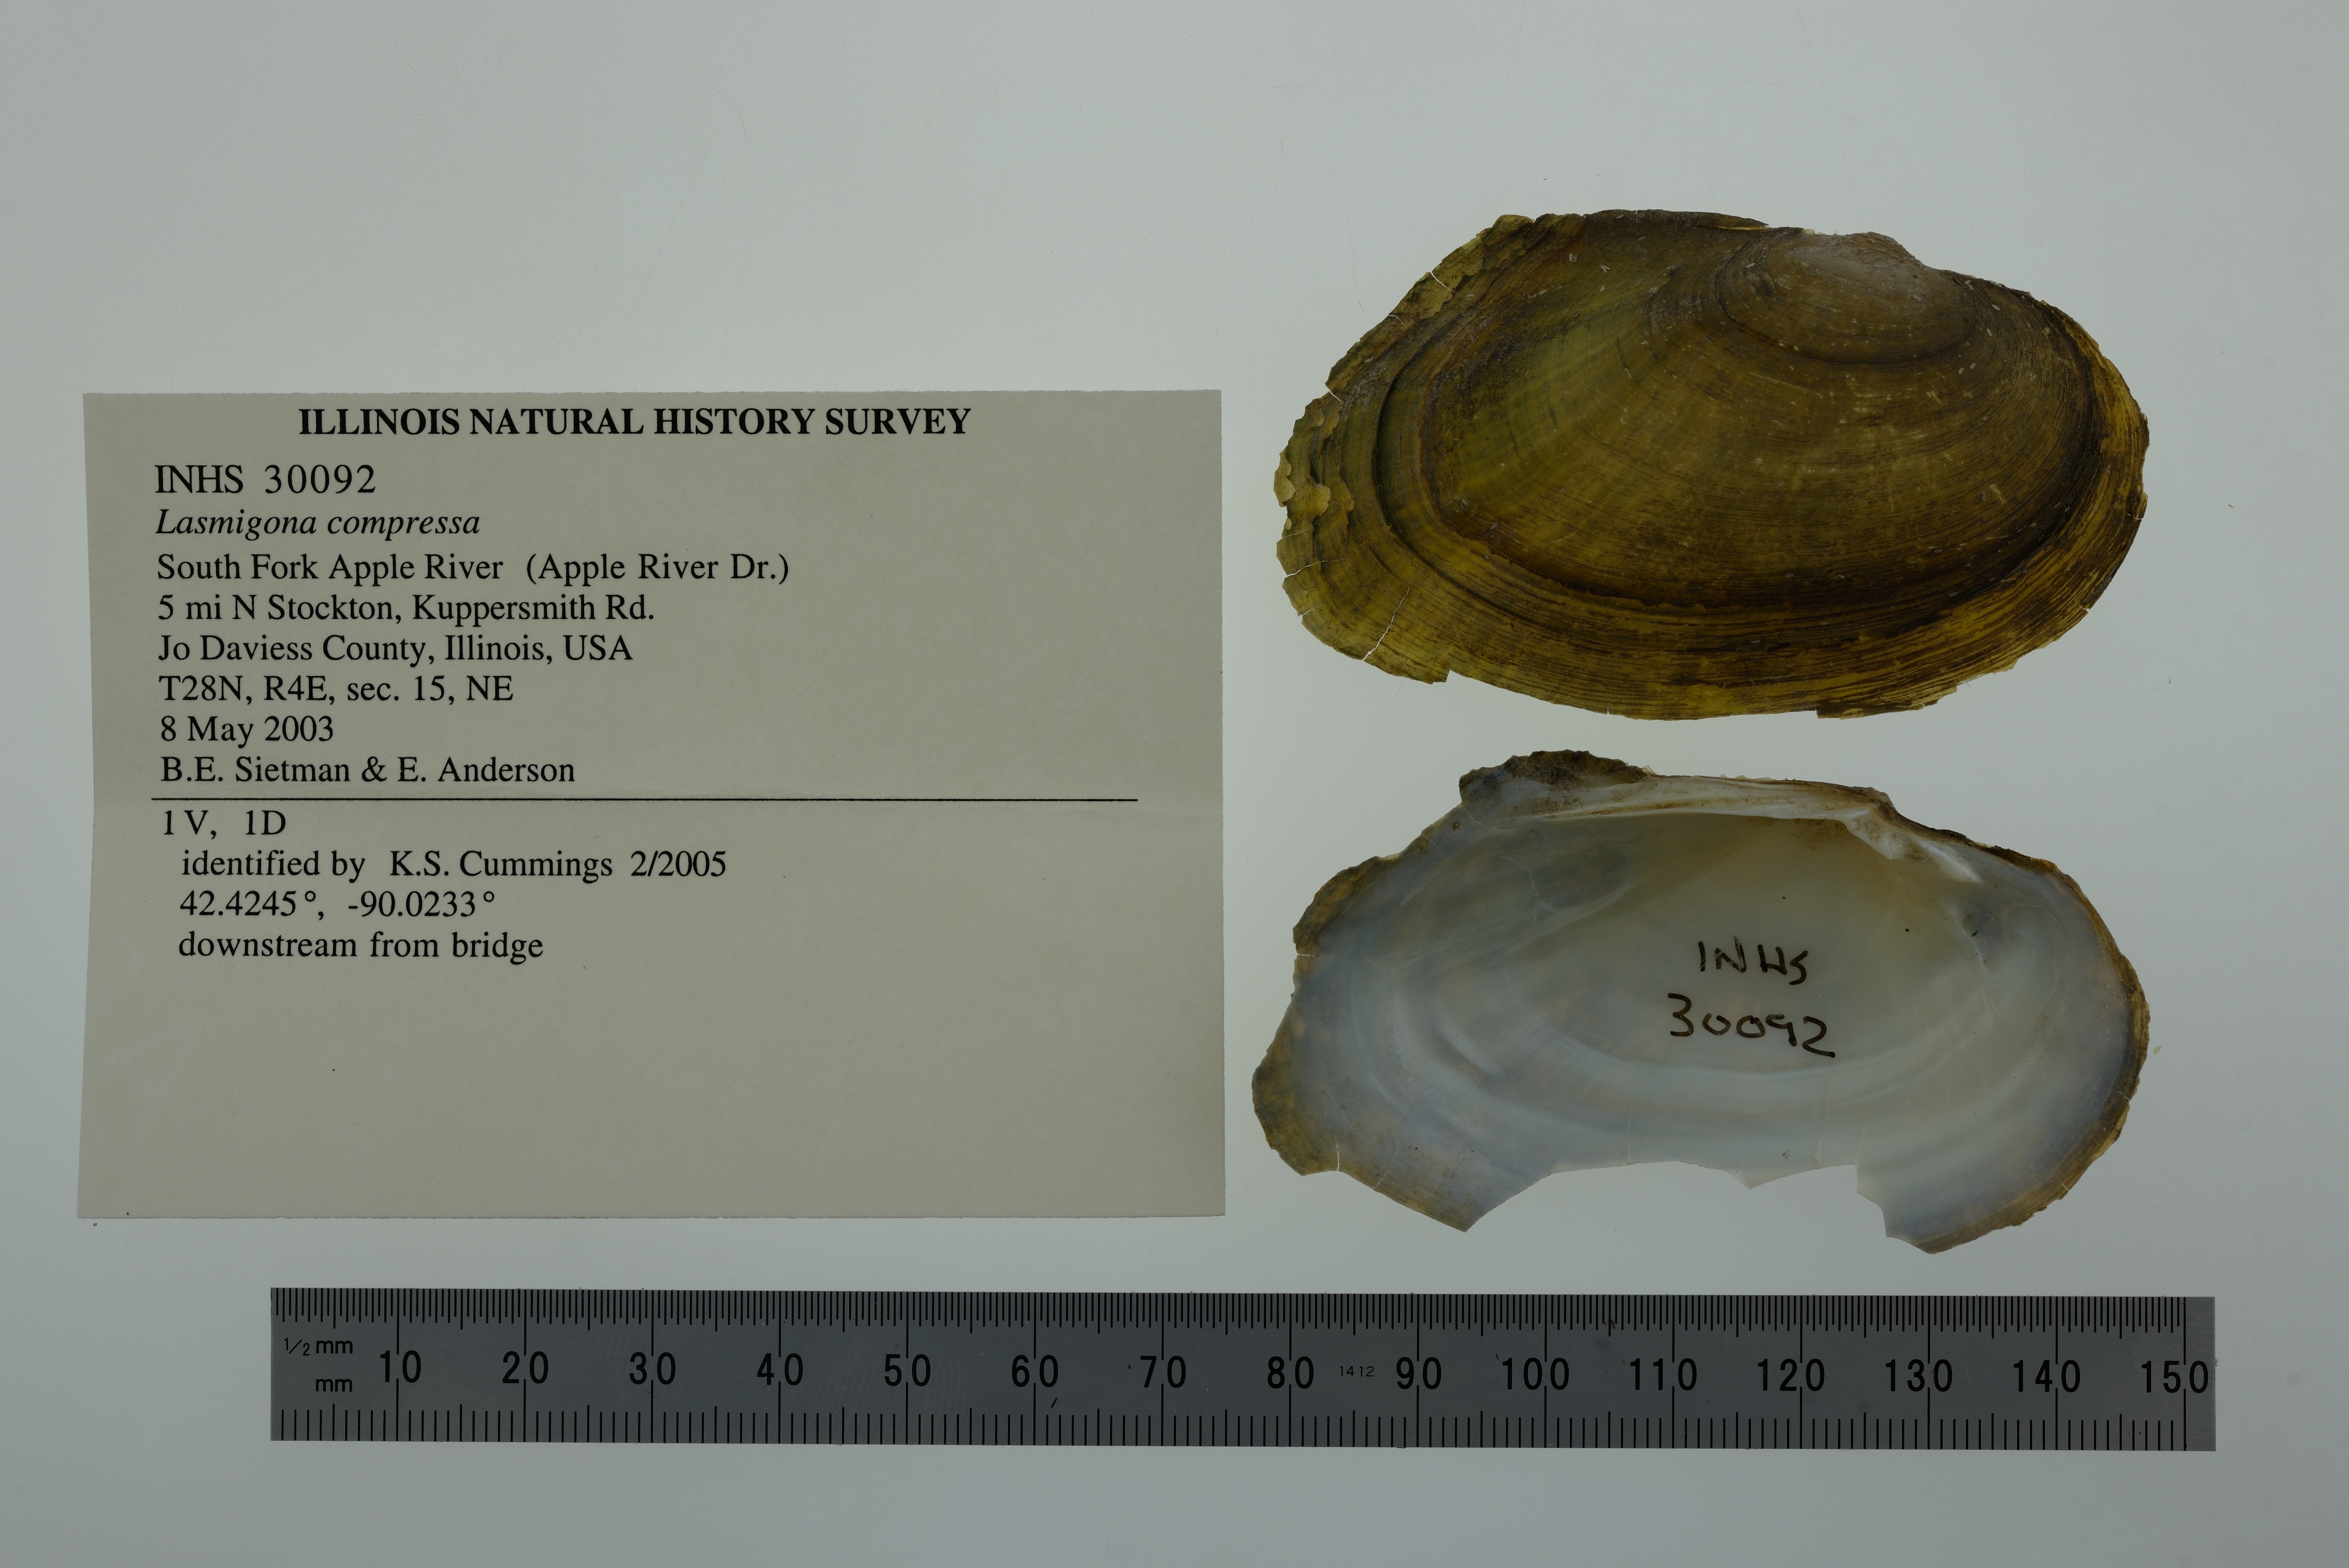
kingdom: Animalia
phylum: Mollusca
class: Bivalvia
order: Unionida
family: Unionidae
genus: Lasmigona
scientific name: Lasmigona compressa
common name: Creek heelsplitter
